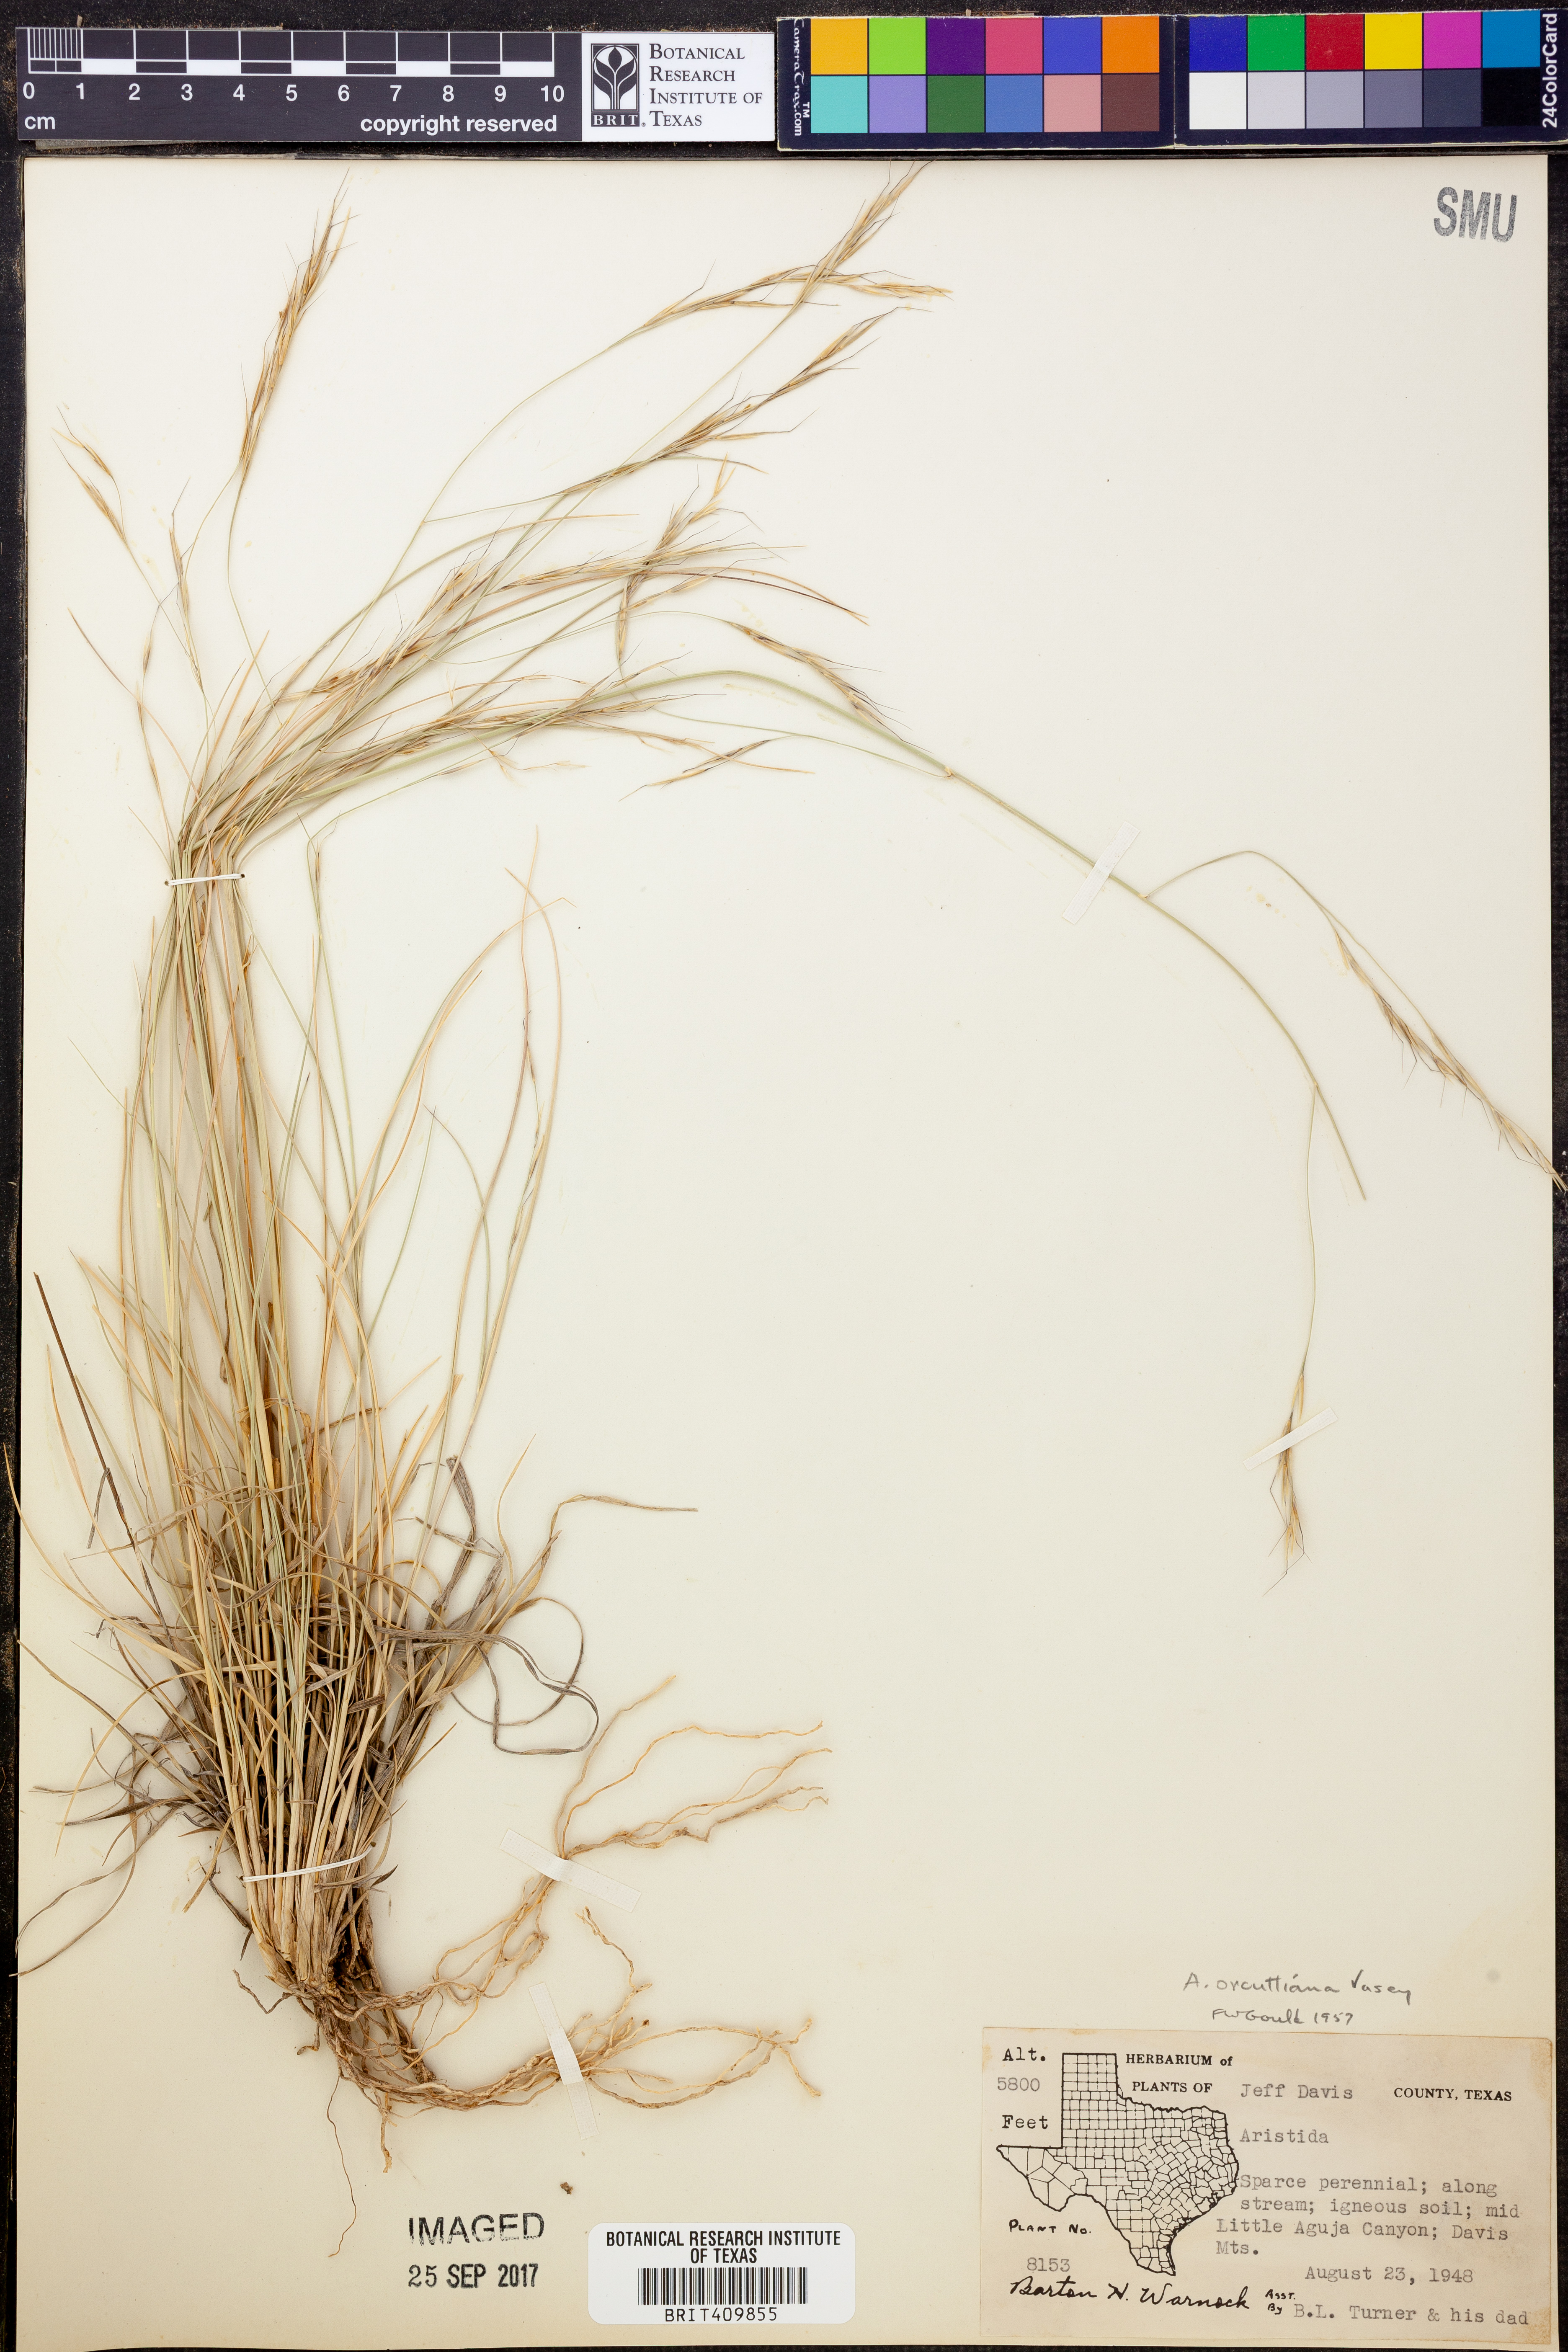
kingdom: Plantae
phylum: Tracheophyta
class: Liliopsida
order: Poales
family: Poaceae
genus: Aristida
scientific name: Aristida schiedeana
